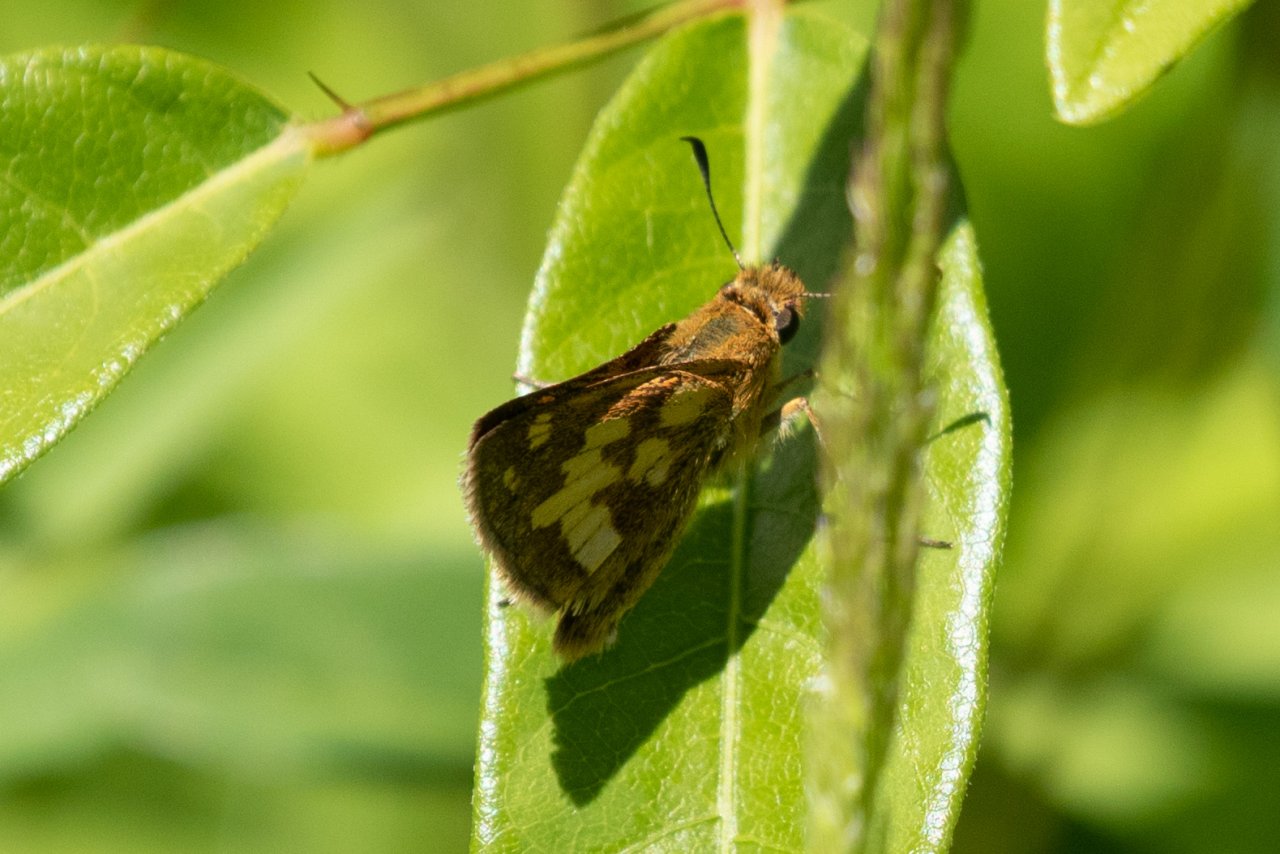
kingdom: Animalia
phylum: Arthropoda
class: Insecta
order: Lepidoptera
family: Hesperiidae
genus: Polites
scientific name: Polites coras
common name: Peck's Skipper
